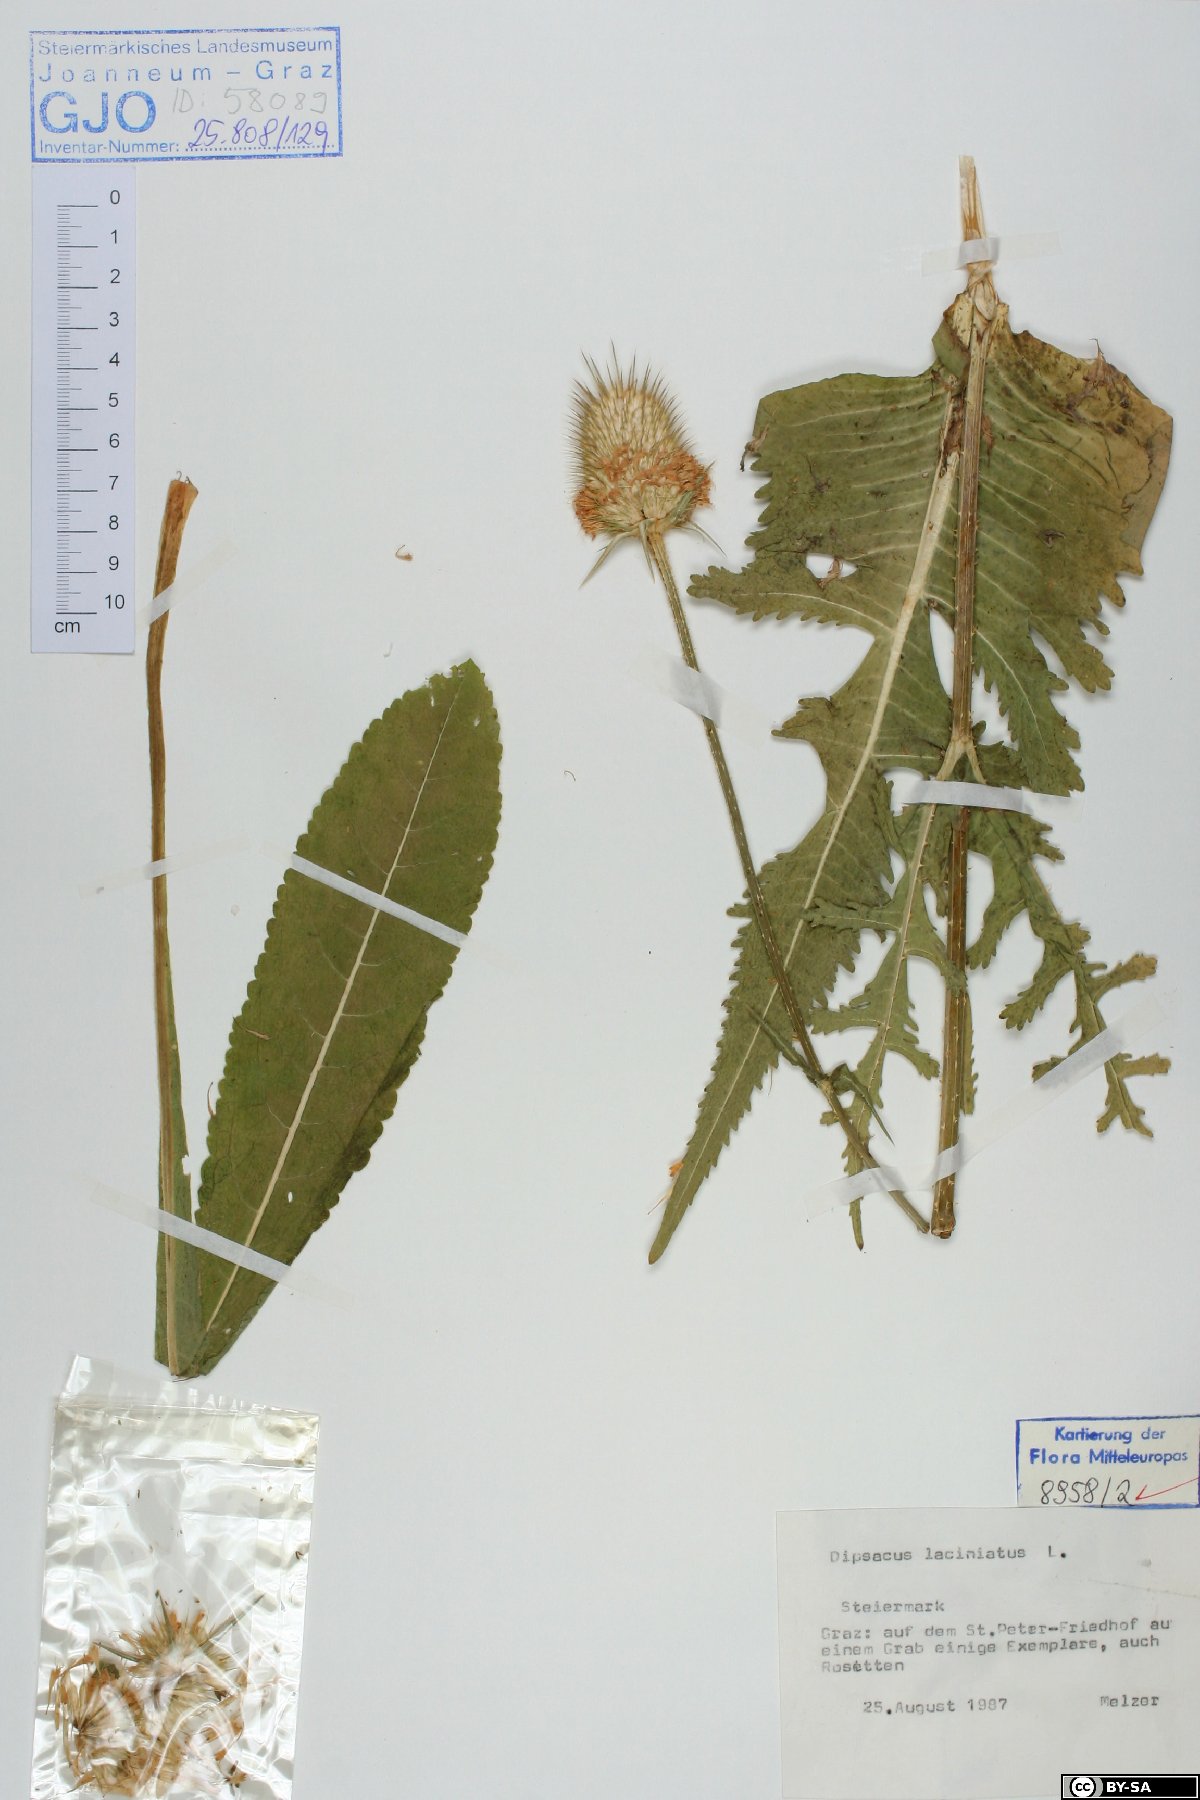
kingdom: Plantae
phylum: Tracheophyta
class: Magnoliopsida
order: Dipsacales
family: Caprifoliaceae
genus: Dipsacus
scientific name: Dipsacus laciniatus
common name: Cut-leaved teasel
